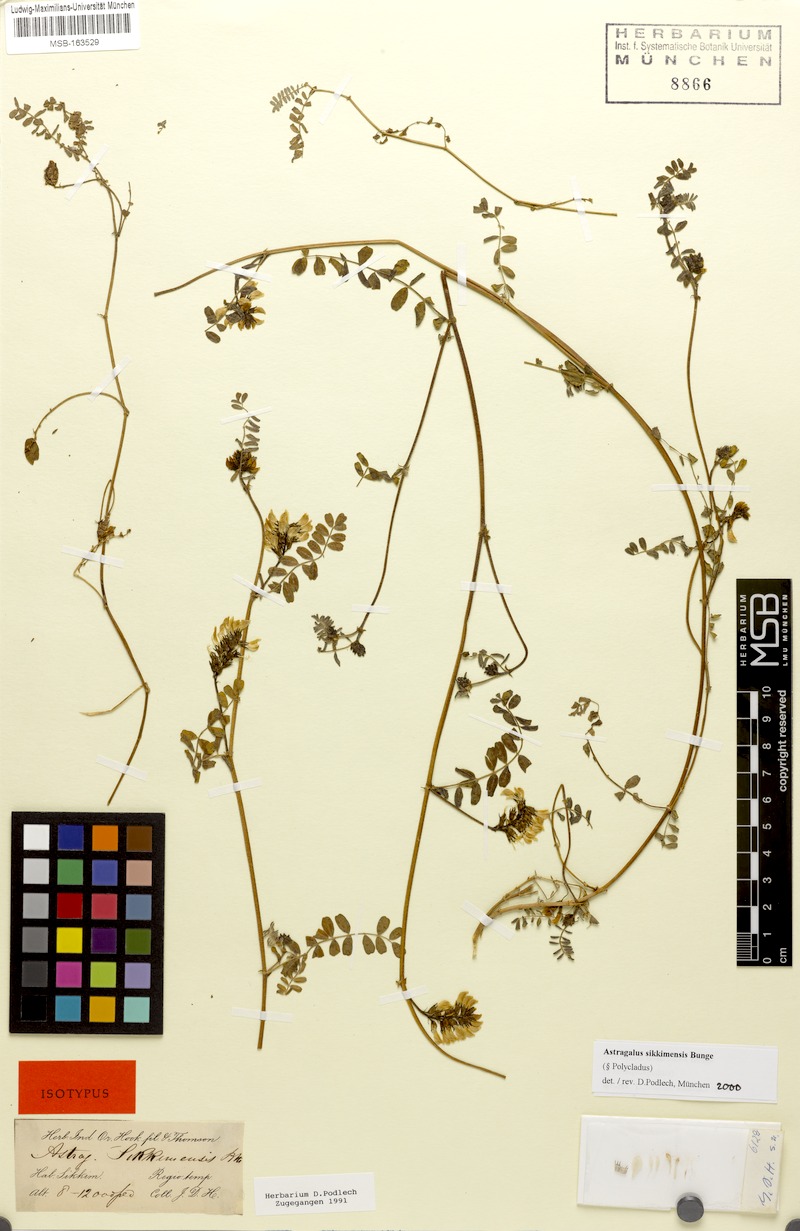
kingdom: Plantae
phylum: Tracheophyta
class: Magnoliopsida
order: Fabales
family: Fabaceae
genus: Astragalus
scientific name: Astragalus sikkimensis
